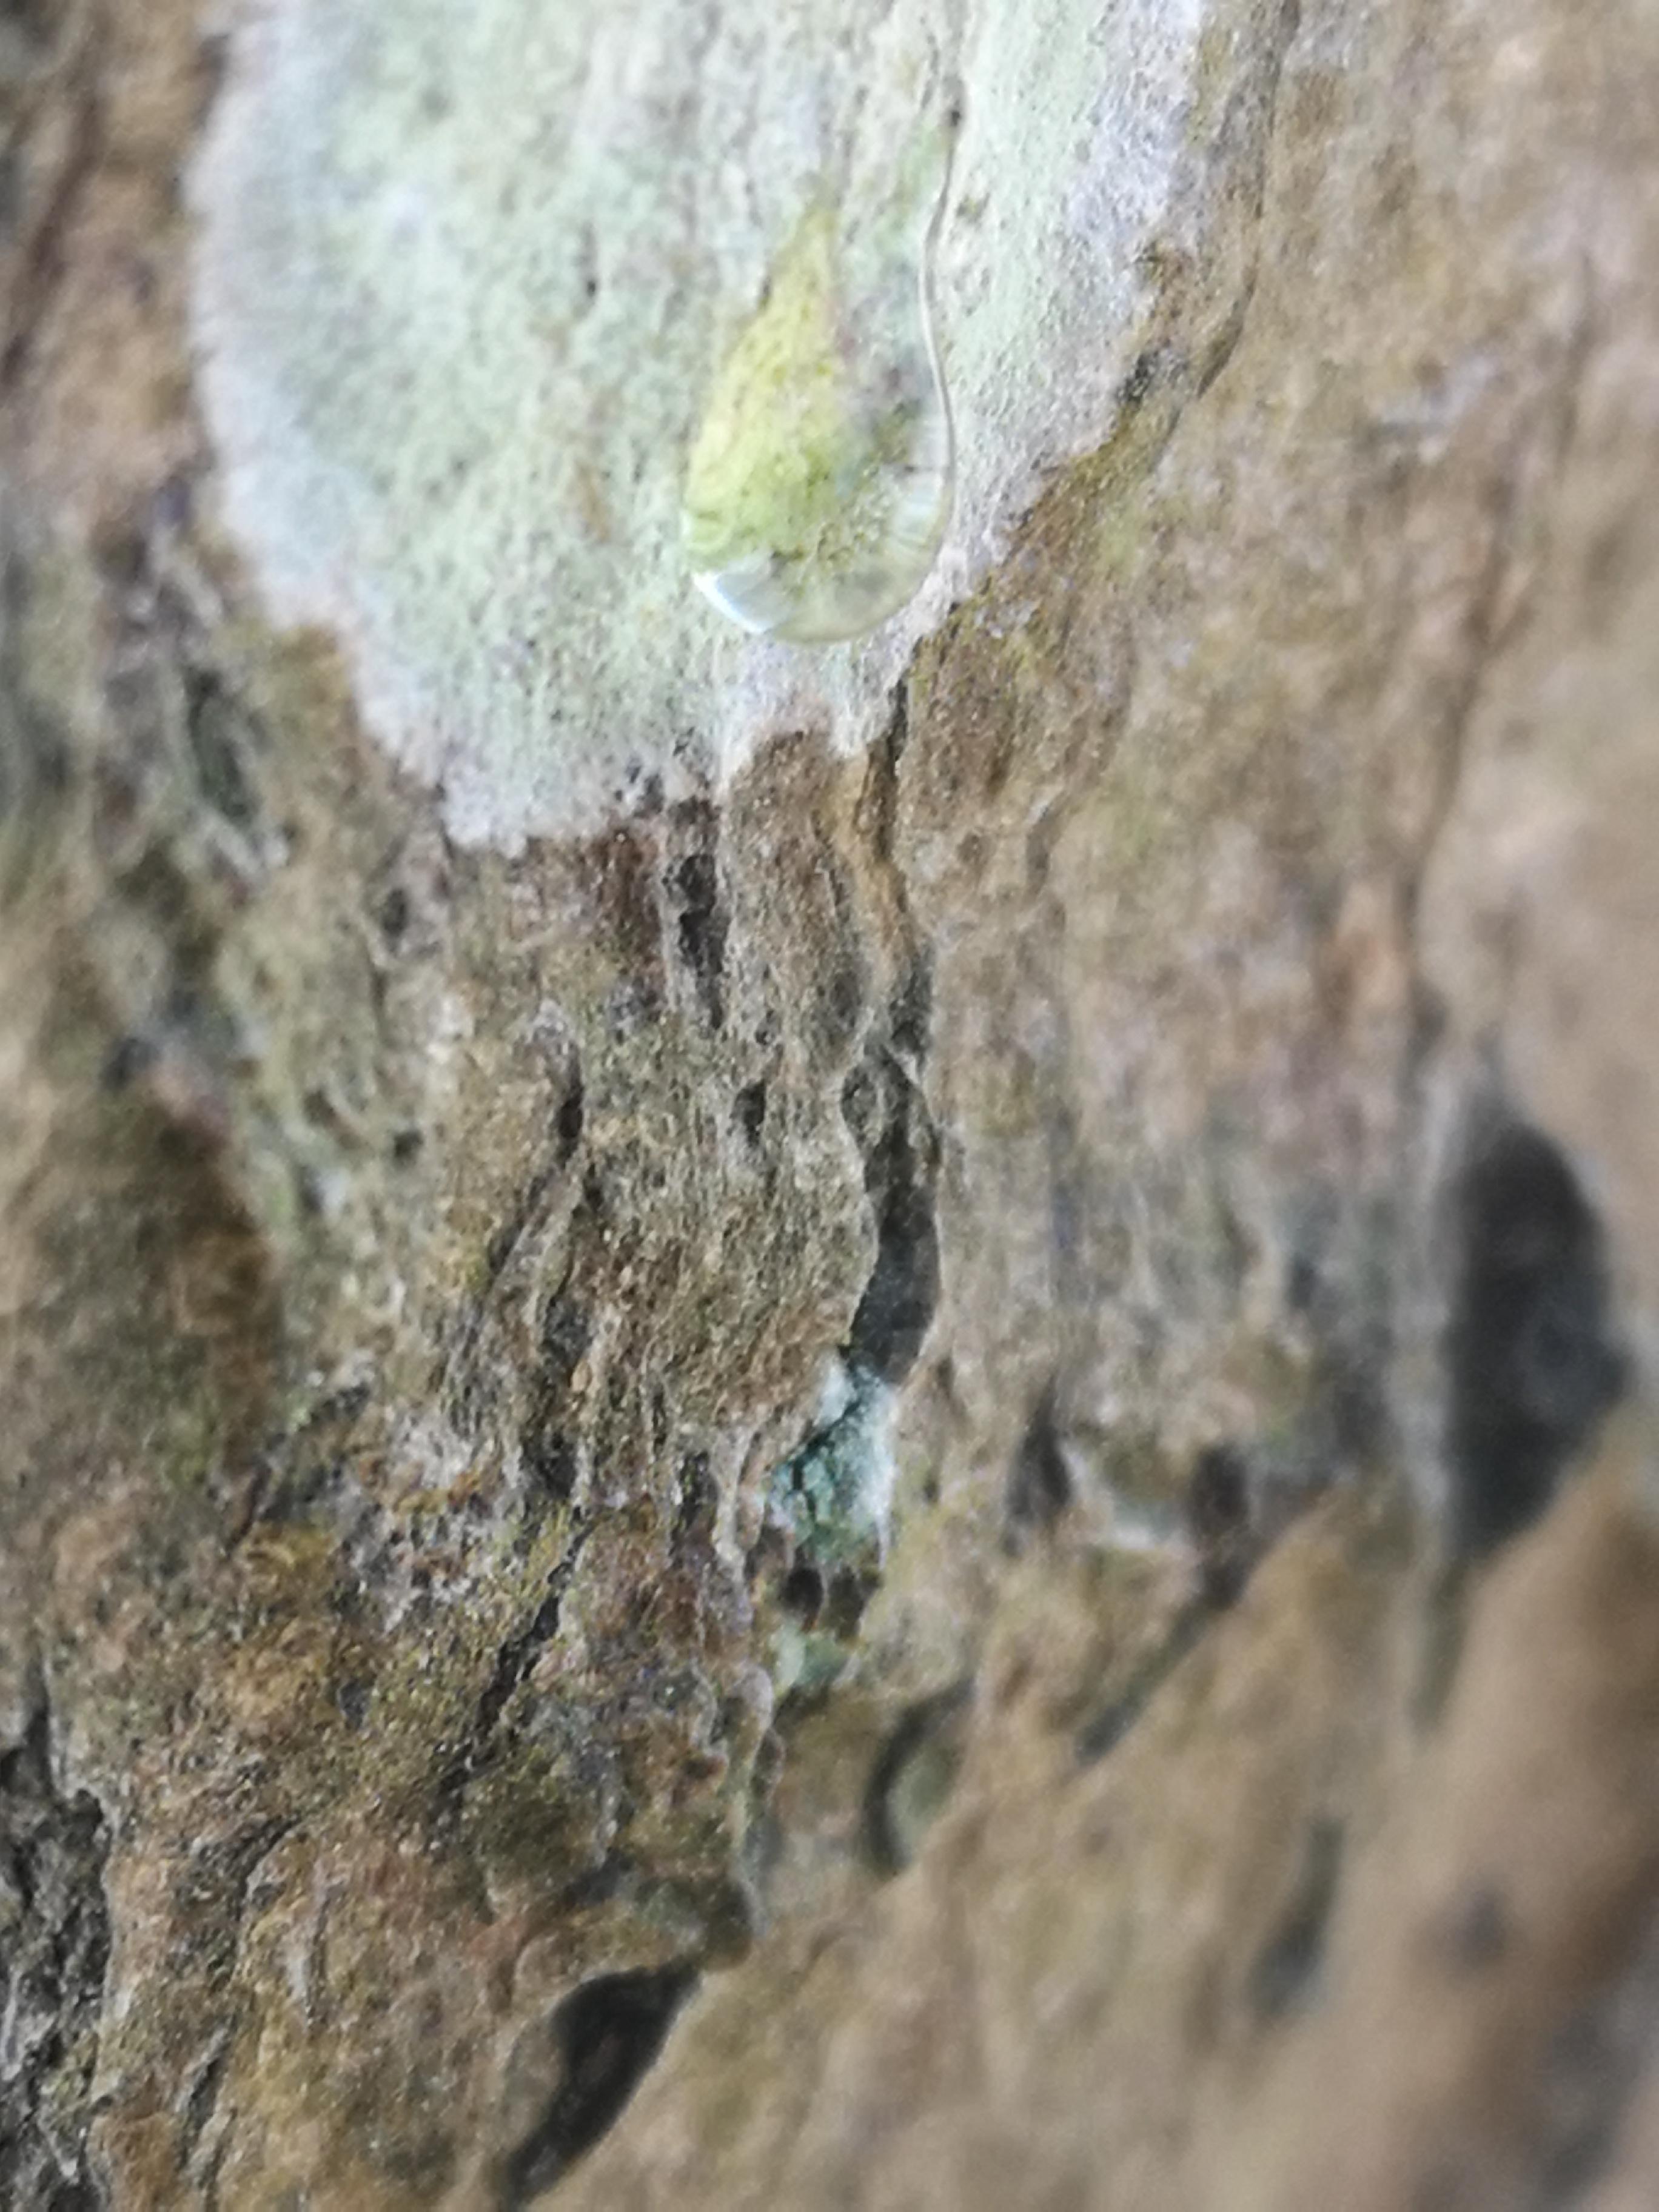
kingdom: Fungi
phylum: Ascomycota
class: Lecanoromycetes
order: Ostropales
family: Phlyctidaceae
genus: Phlyctis
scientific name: Phlyctis argena
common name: almindelig sølvlav
